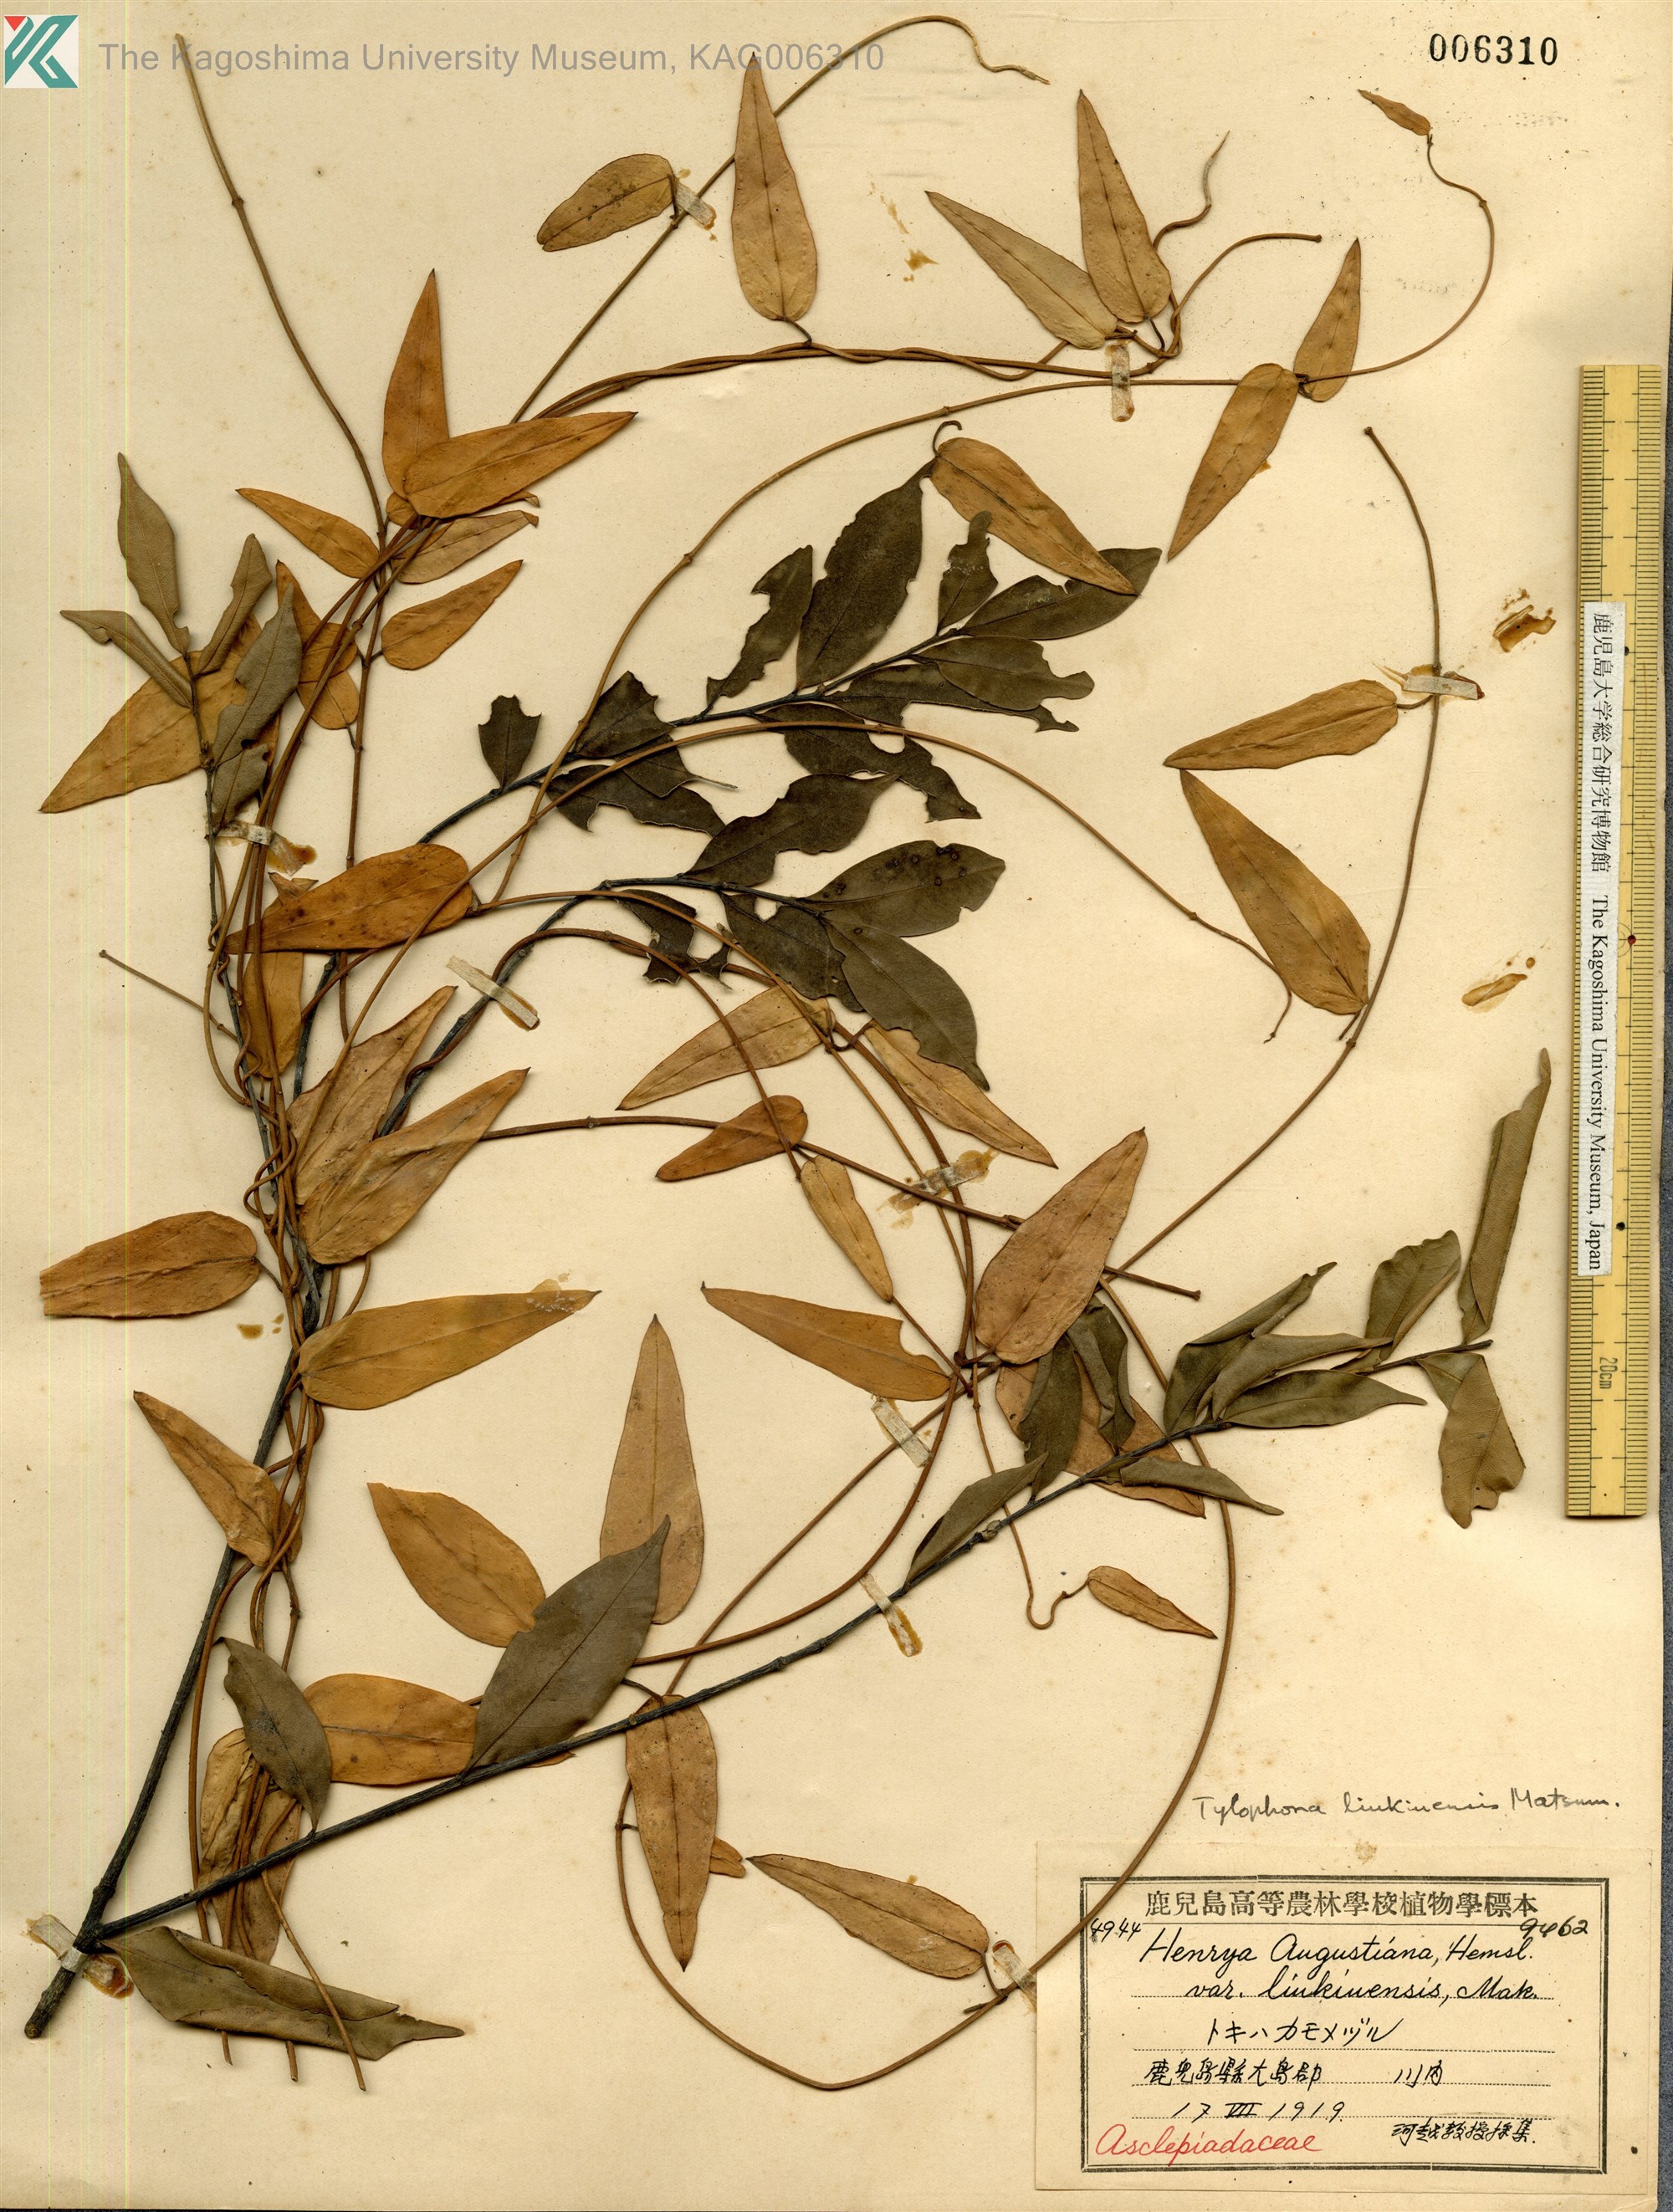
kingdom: Plantae
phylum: Tracheophyta
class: Magnoliopsida
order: Gentianales
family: Apocynaceae
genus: Vincetoxicum
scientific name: Vincetoxicum sieboldii
